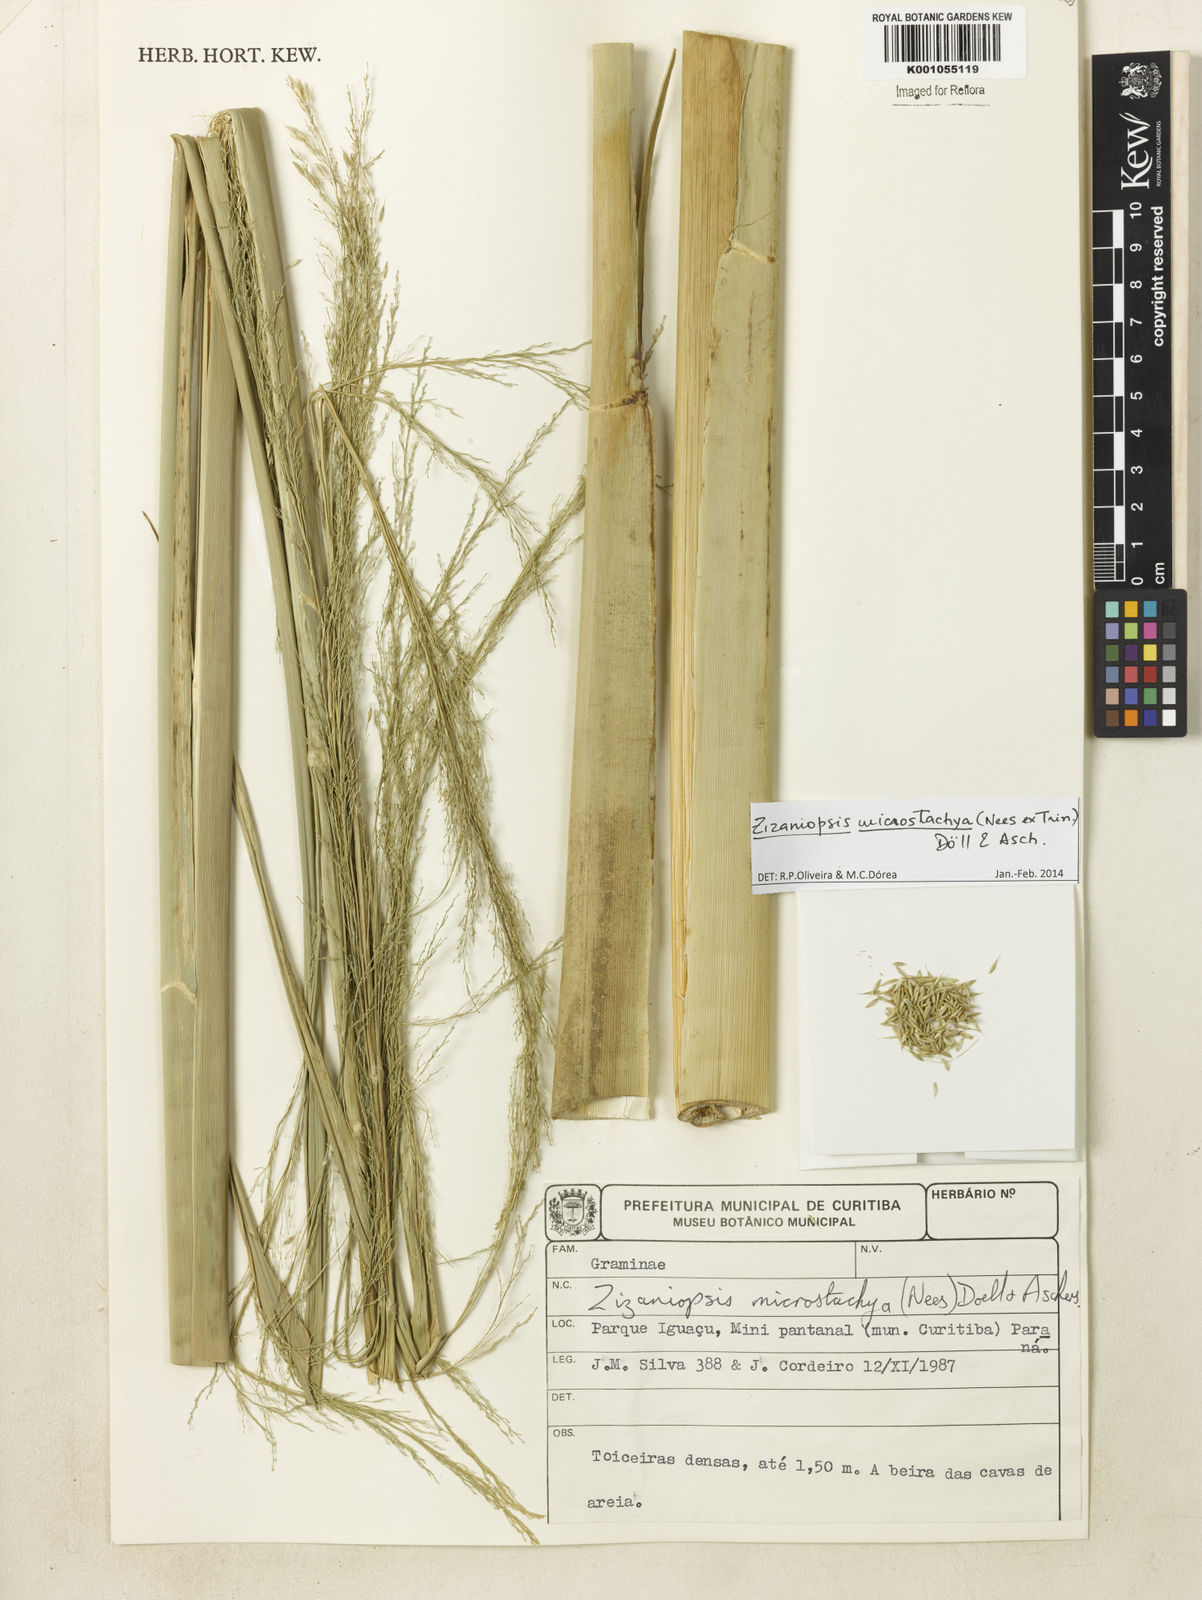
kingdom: Plantae
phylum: Tracheophyta
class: Liliopsida
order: Poales
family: Poaceae
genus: Zizaniopsis
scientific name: Zizaniopsis
